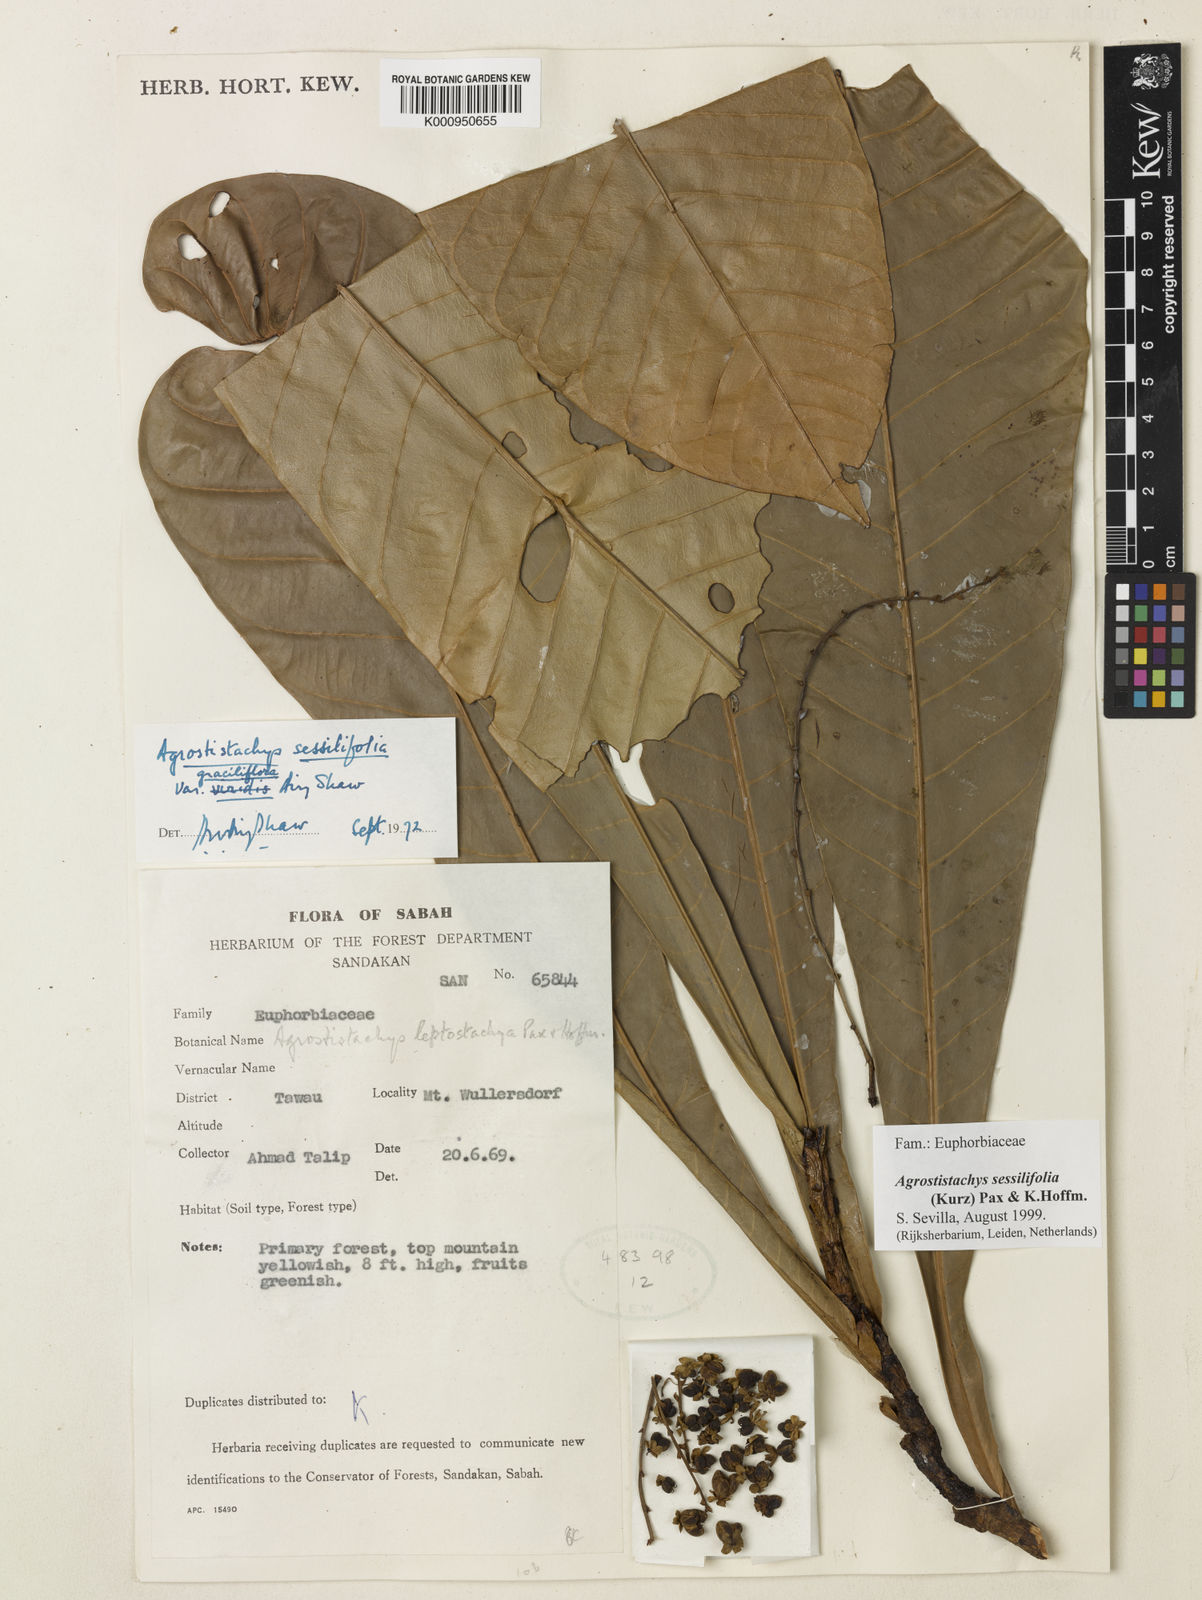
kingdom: Plantae
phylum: Tracheophyta
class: Magnoliopsida
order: Malpighiales
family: Euphorbiaceae
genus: Agrostistachys
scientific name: Agrostistachys sessilifolia
